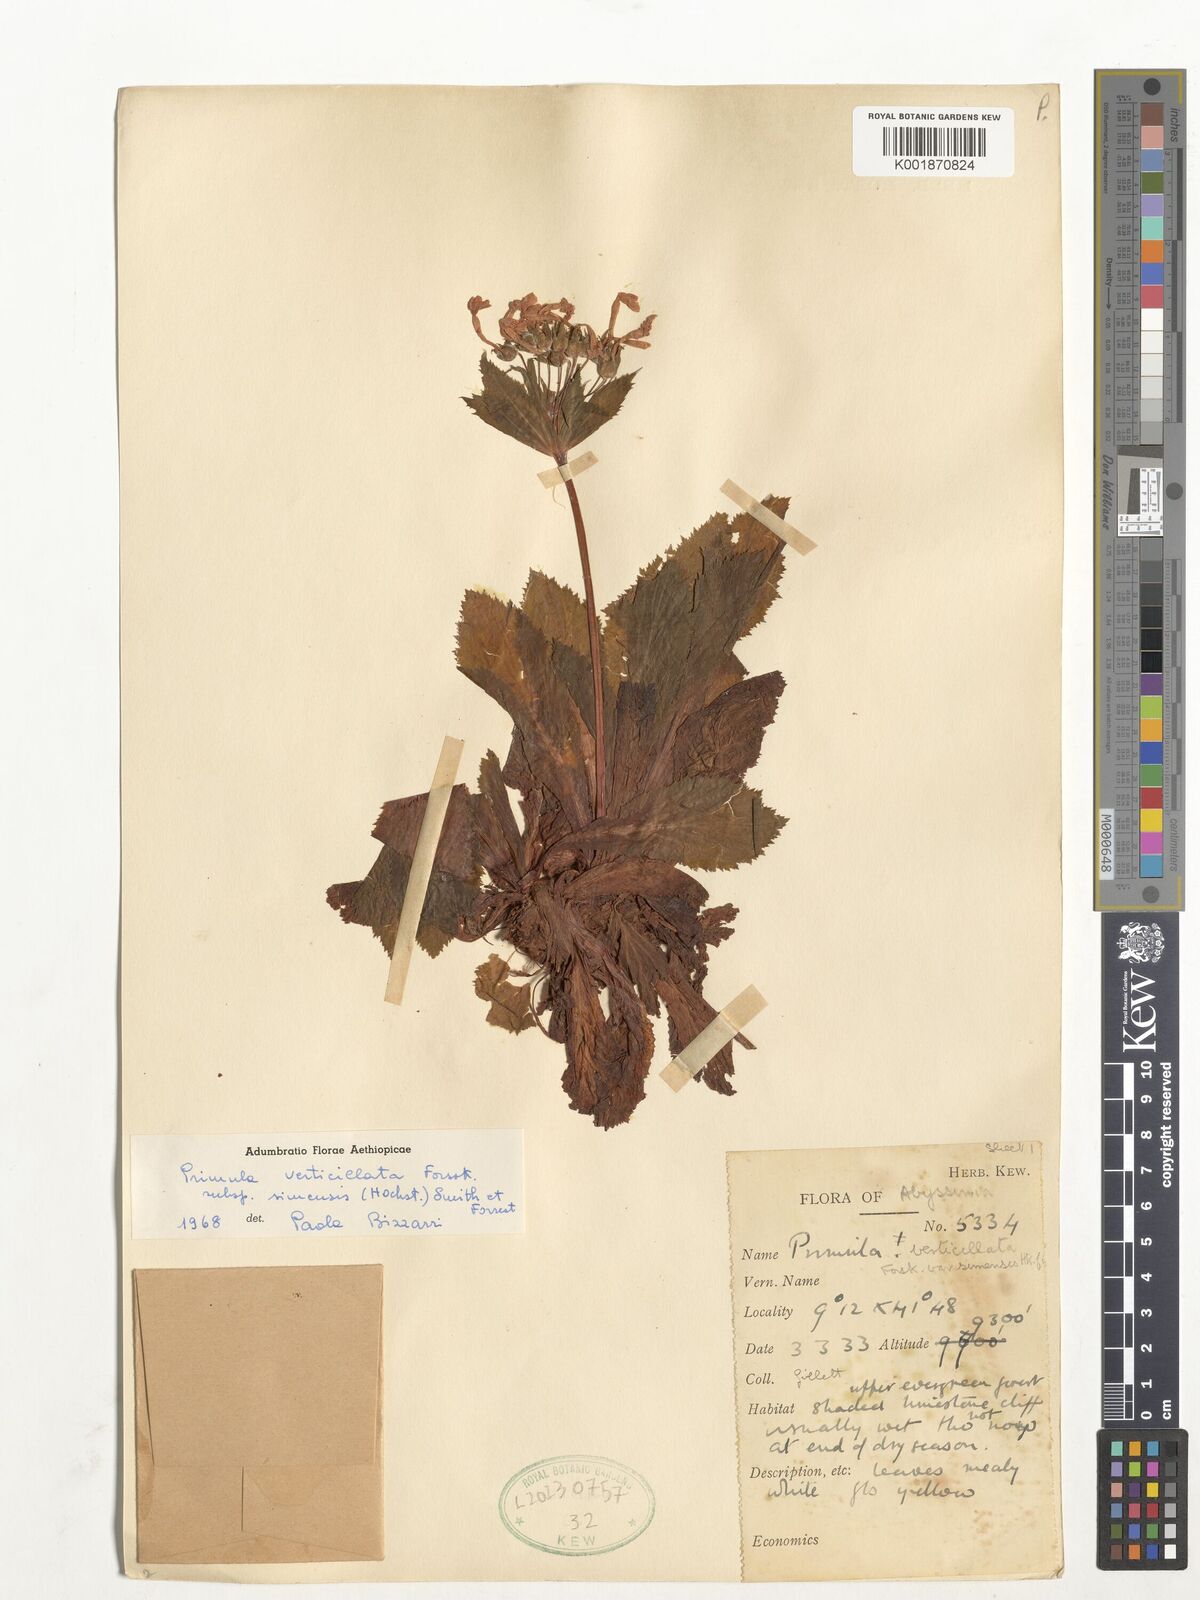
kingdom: Plantae
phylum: Tracheophyta
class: Magnoliopsida
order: Ericales
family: Primulaceae
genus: Evotrochis
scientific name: Evotrochis simensis
